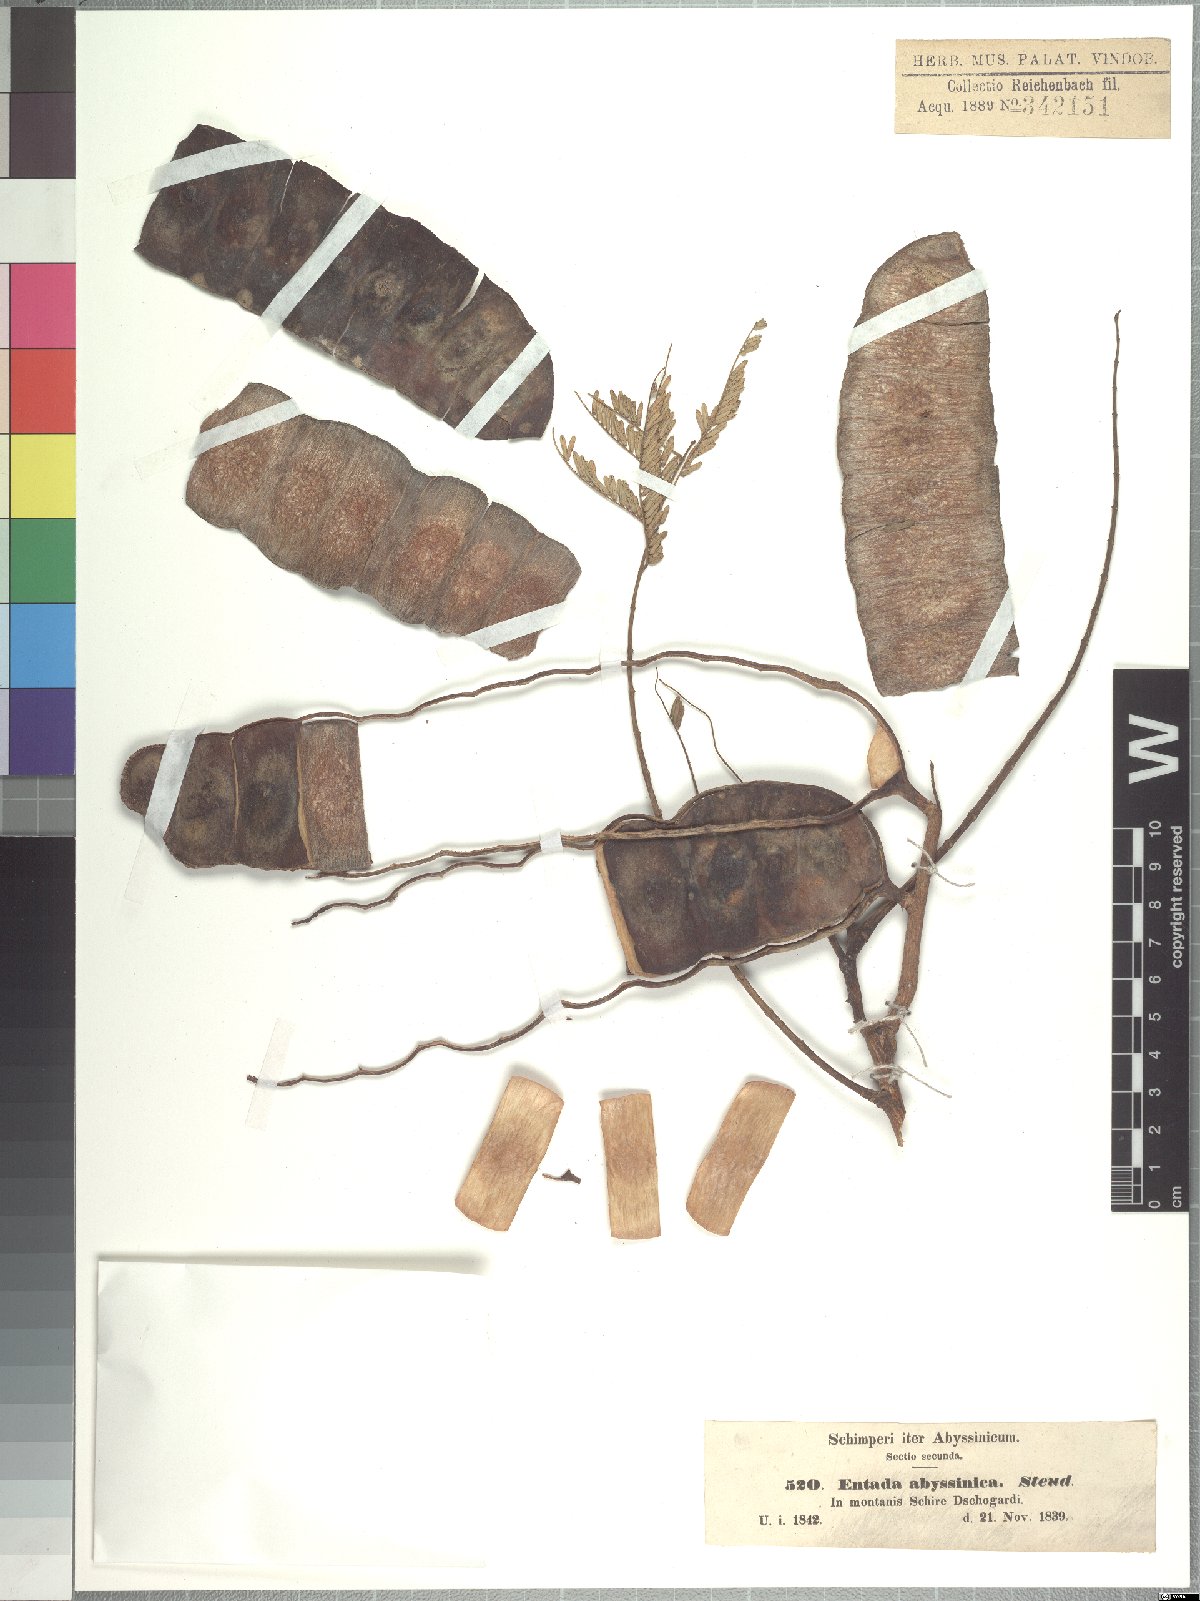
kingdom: Plantae
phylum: Tracheophyta
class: Magnoliopsida
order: Fabales
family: Fabaceae
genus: Entada
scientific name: Entada abyssinica
